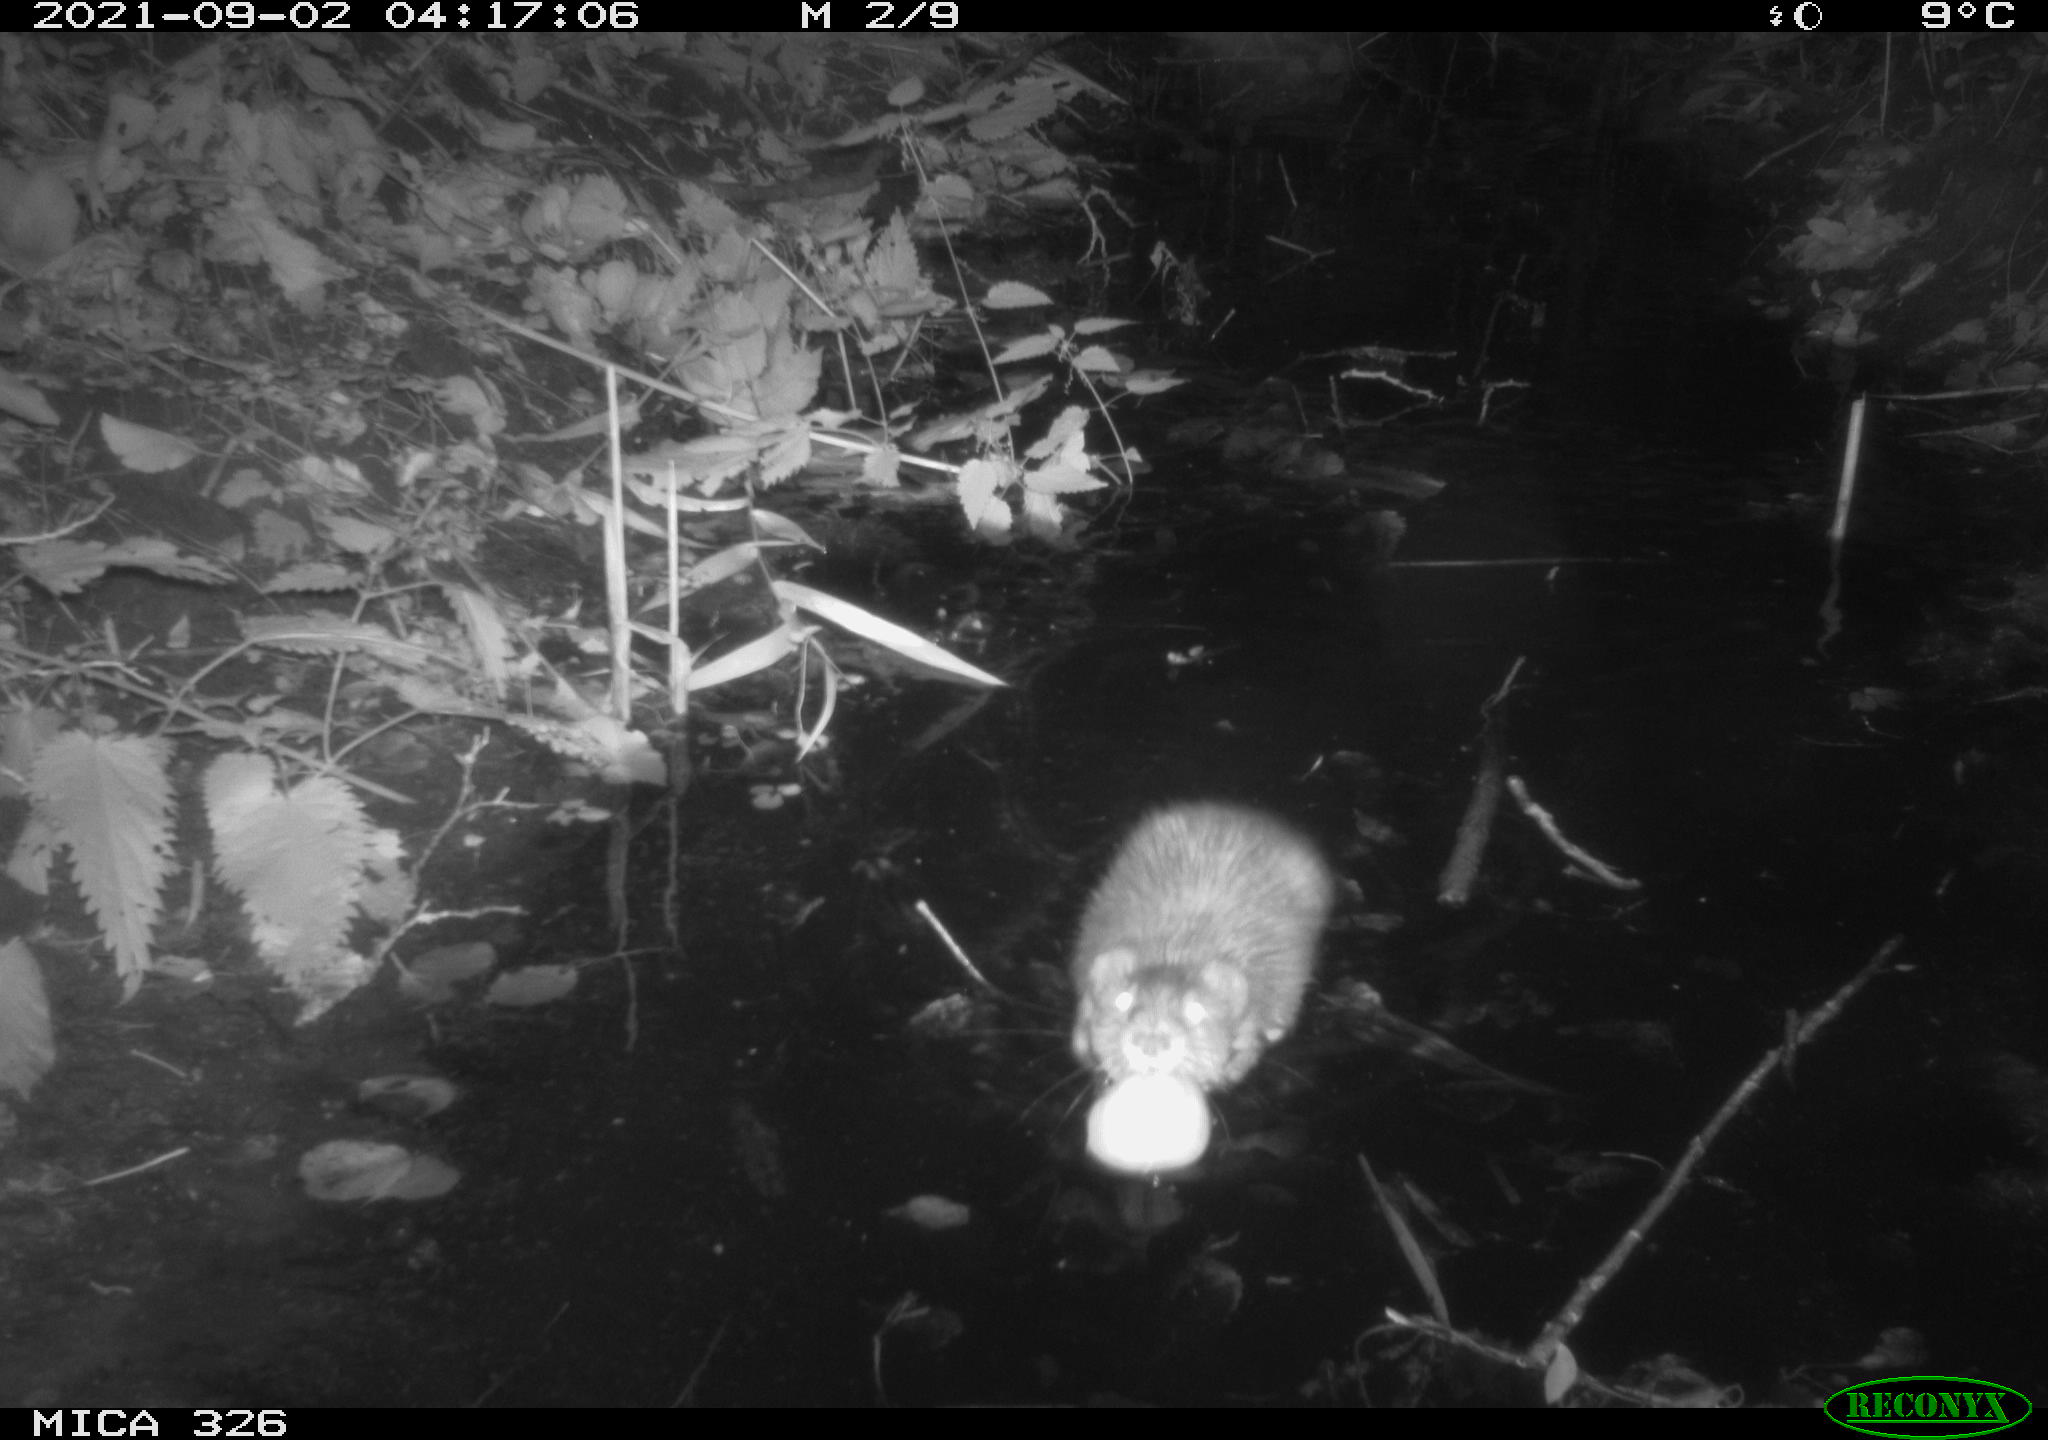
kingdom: Animalia
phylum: Chordata
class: Mammalia
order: Rodentia
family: Cricetidae
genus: Ondatra
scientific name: Ondatra zibethicus
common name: Muskrat
